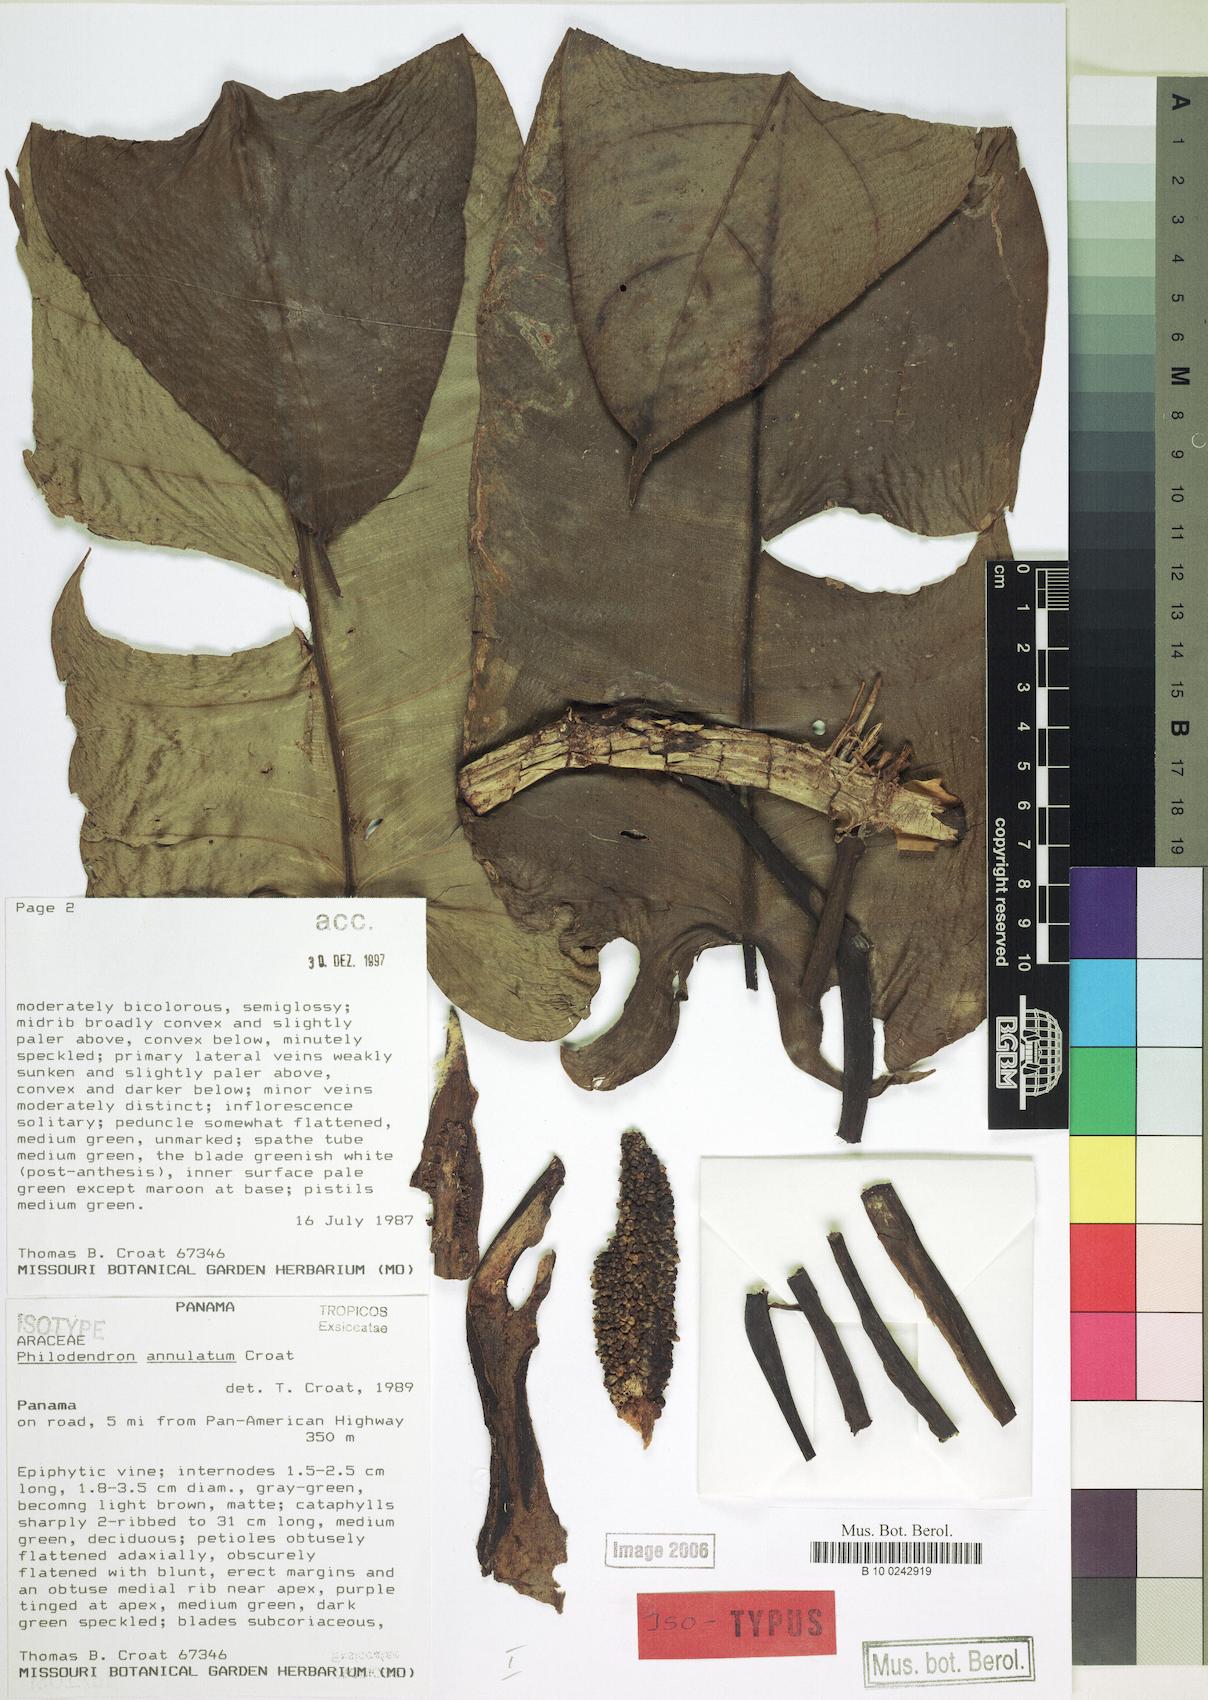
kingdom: Plantae
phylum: Tracheophyta
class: Liliopsida
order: Alismatales
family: Araceae
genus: Philodendron
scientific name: Philodendron annulatum
